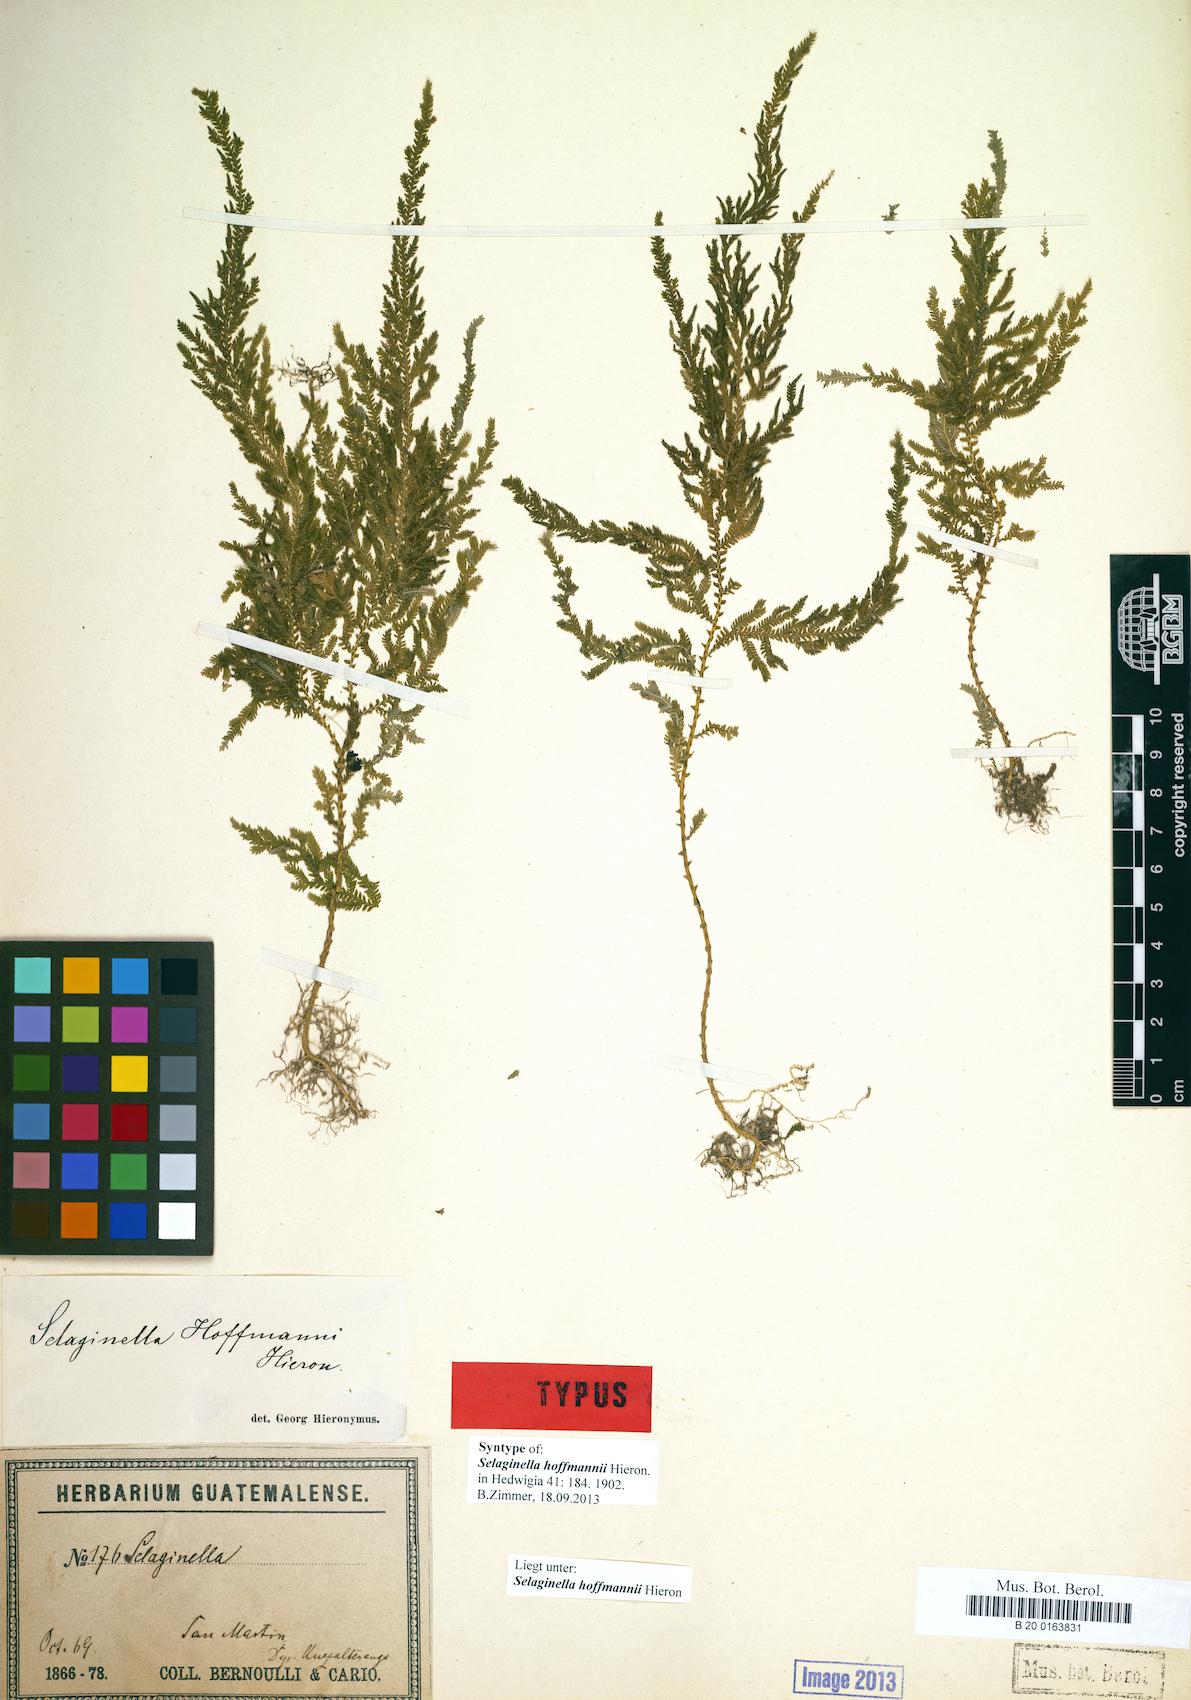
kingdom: Plantae
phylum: Tracheophyta
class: Lycopodiopsida
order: Selaginellales
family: Selaginellaceae
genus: Selaginella
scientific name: Selaginella hoffmannii
